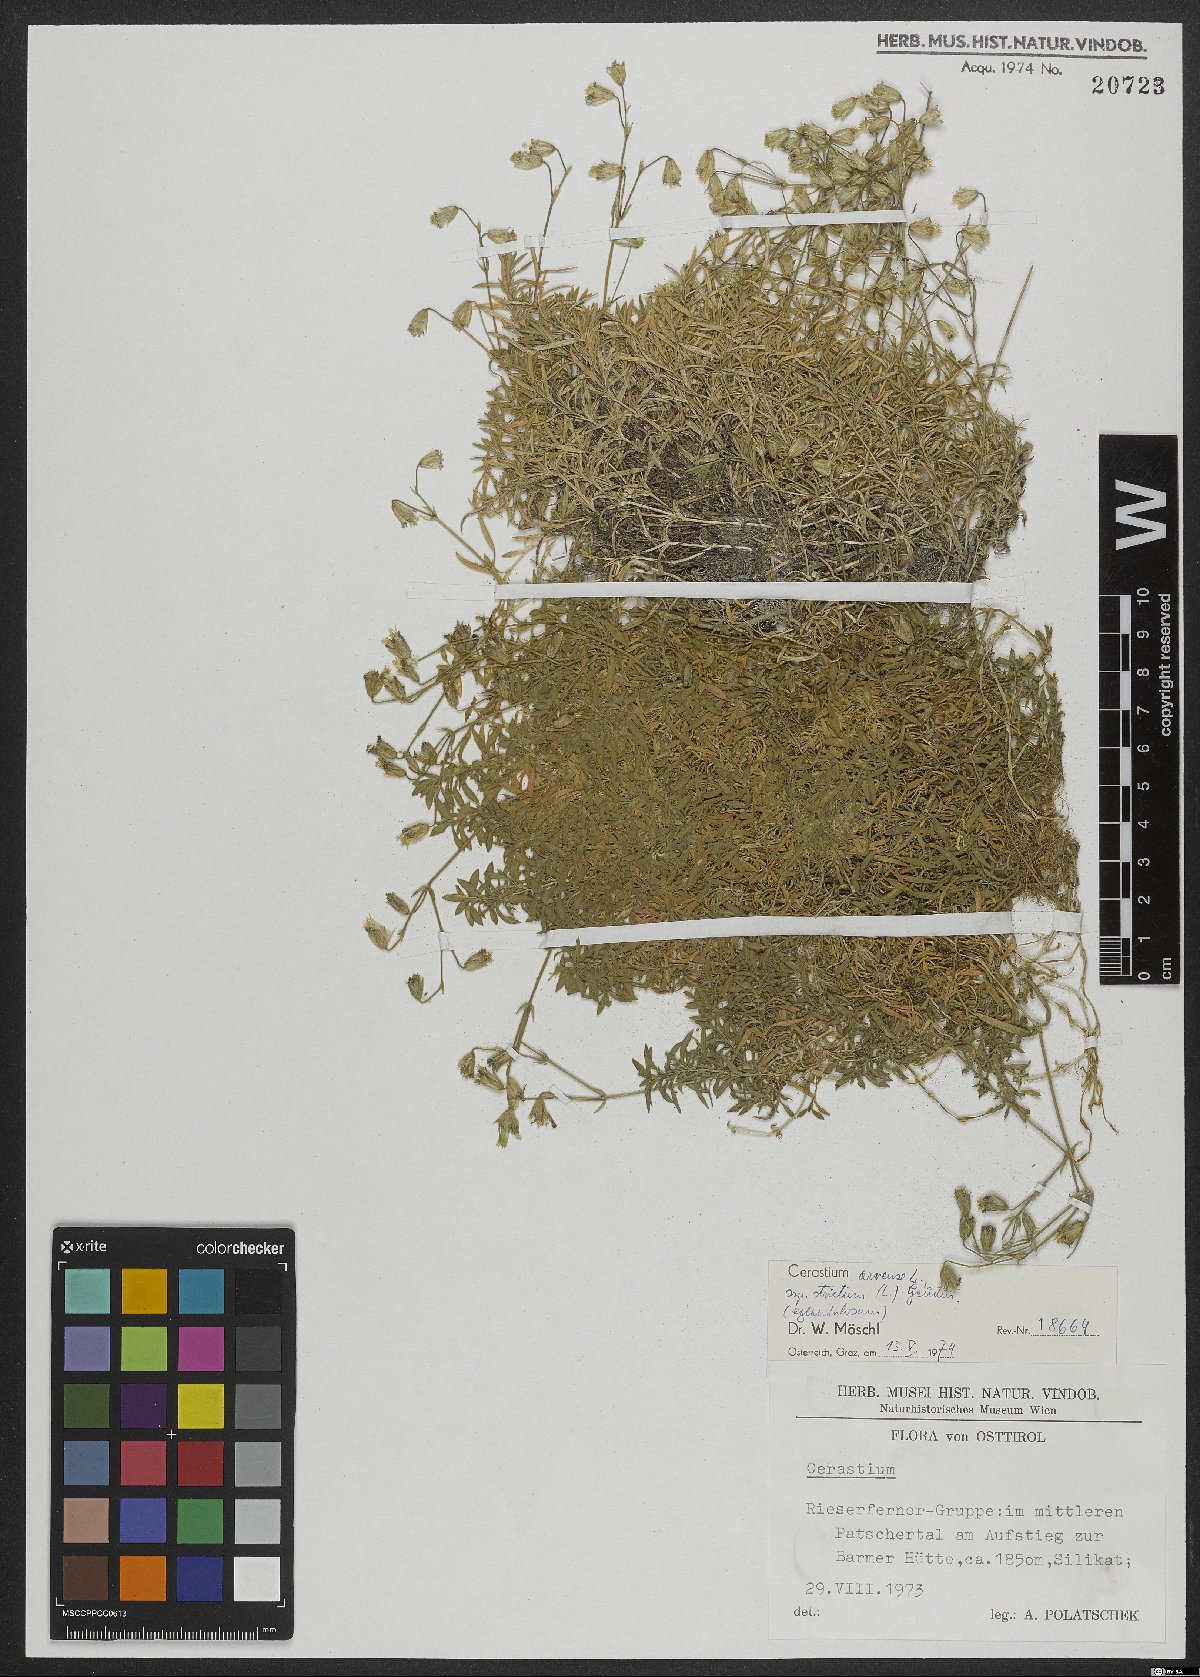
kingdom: Plantae
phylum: Tracheophyta
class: Magnoliopsida
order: Caryophyllales
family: Caryophyllaceae
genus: Cerastium
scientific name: Cerastium elongatum
